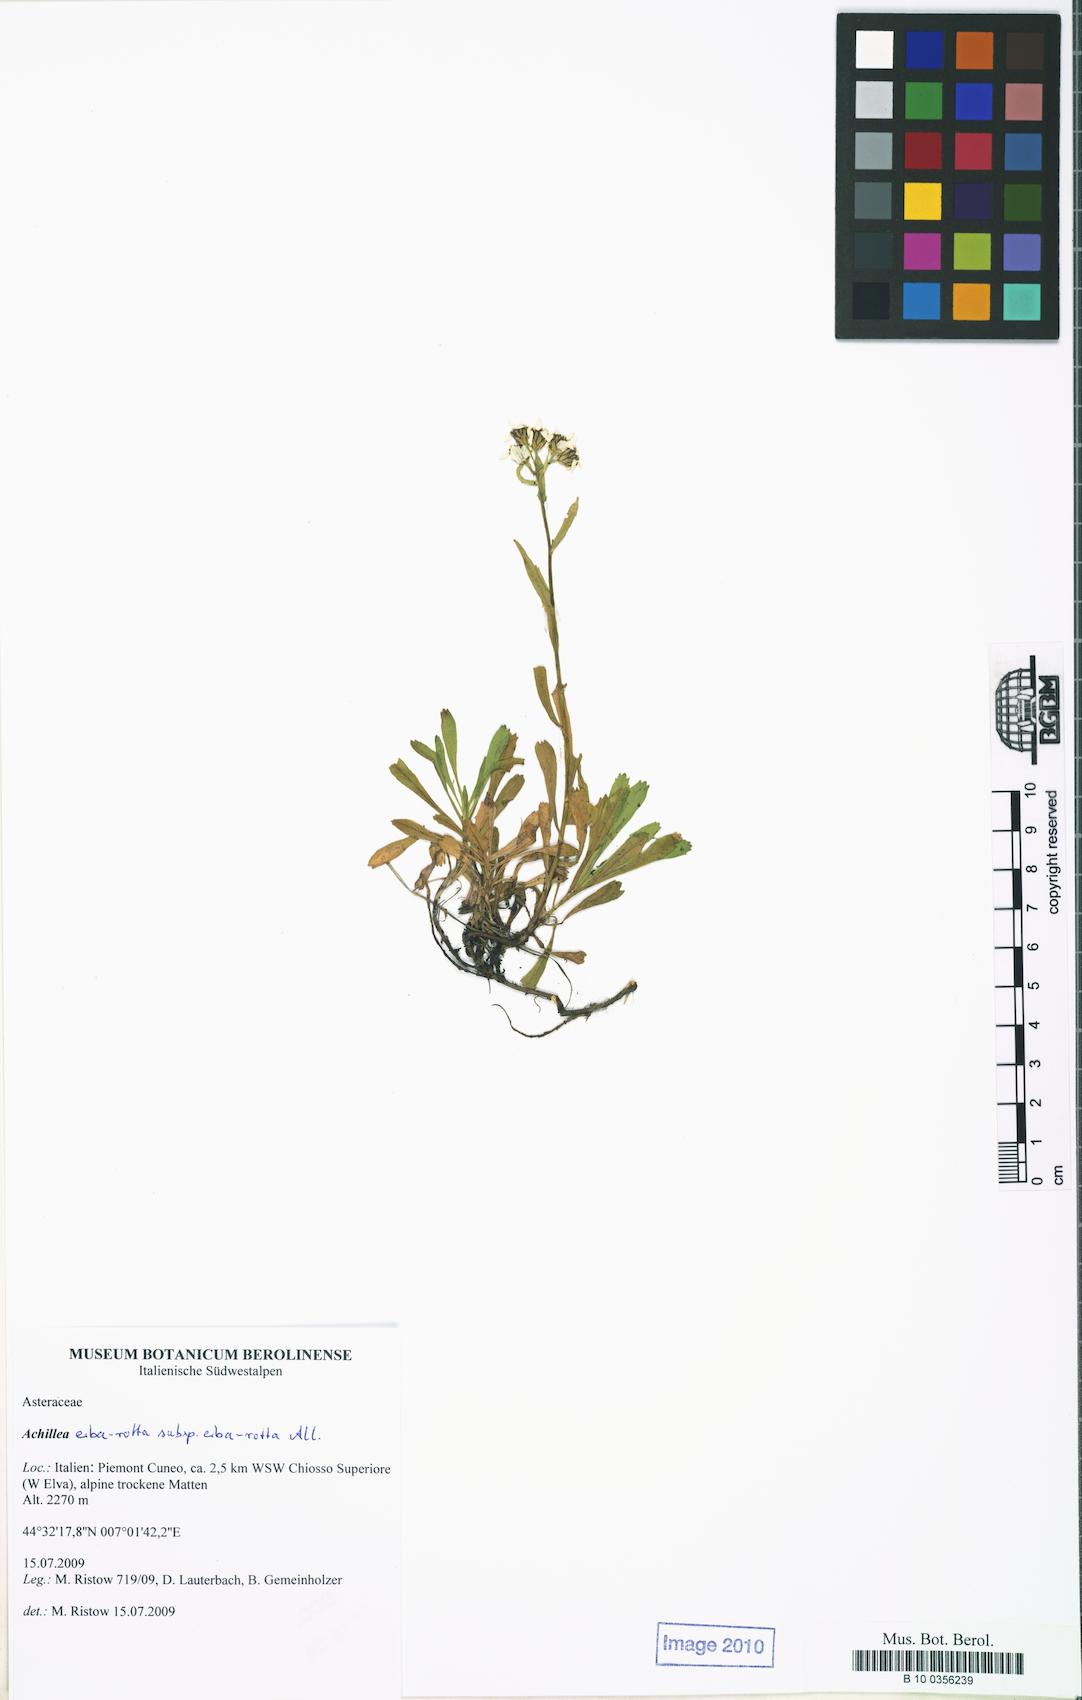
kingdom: Plantae
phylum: Tracheophyta
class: Magnoliopsida
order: Asterales
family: Asteraceae
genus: Achillea
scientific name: Achillea erba-rotta
